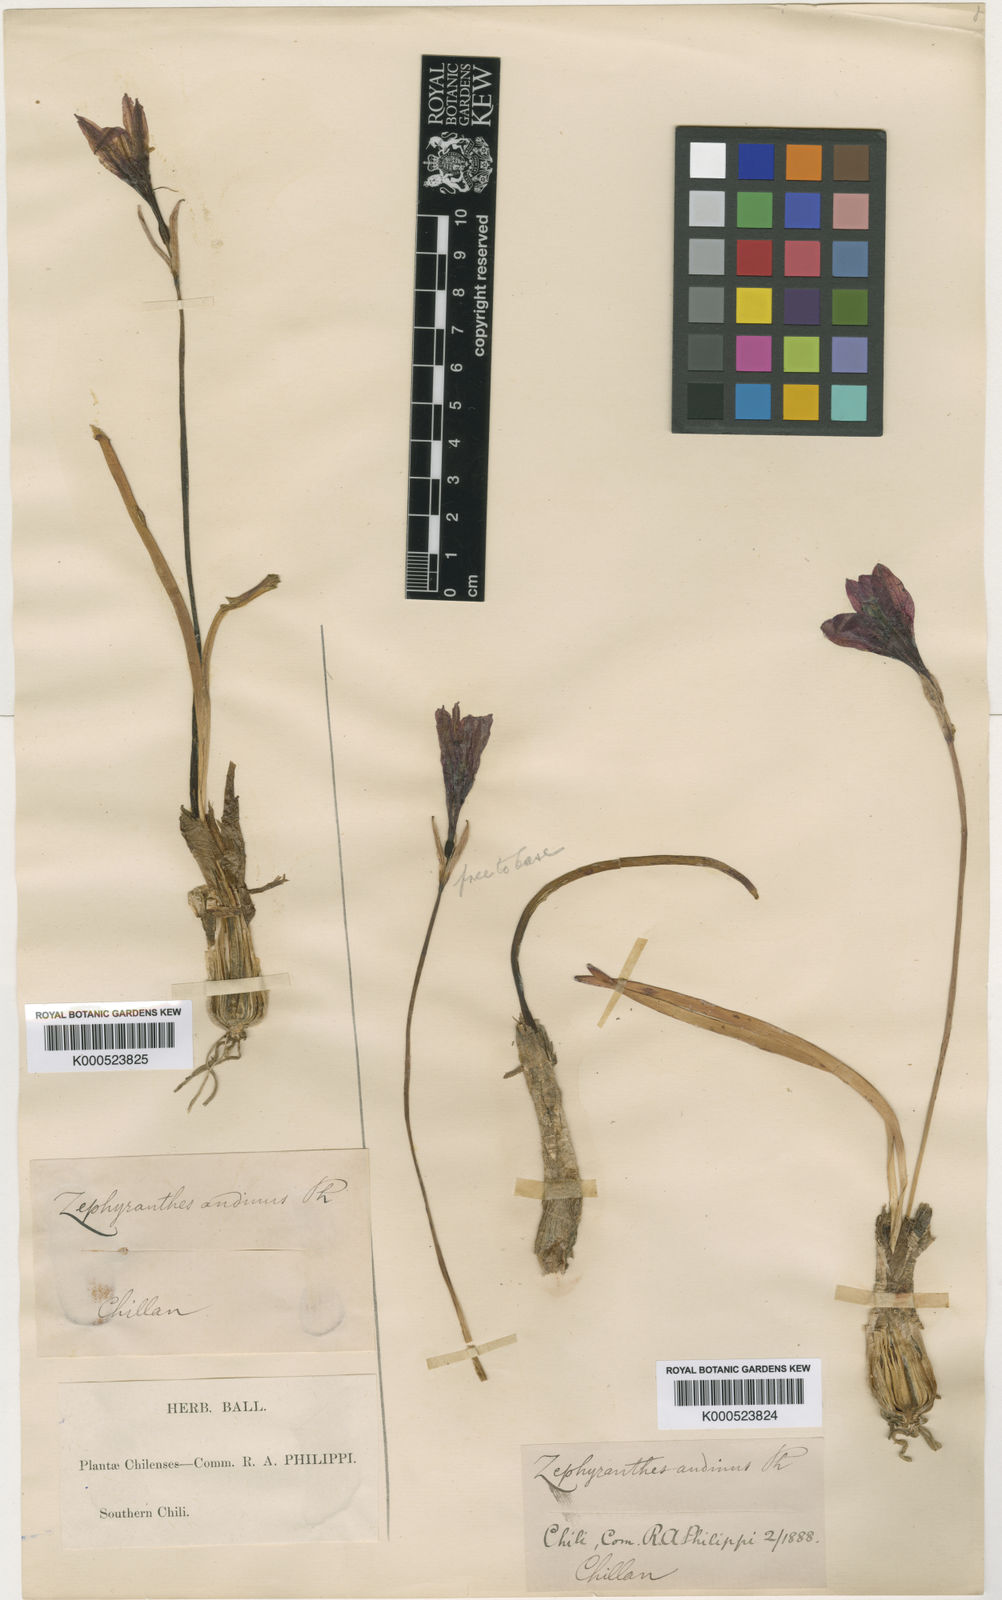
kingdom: Plantae
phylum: Tracheophyta
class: Liliopsida
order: Asparagales
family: Amaryllidaceae
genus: Rhodolirium
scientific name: Rhodolirium andicola
